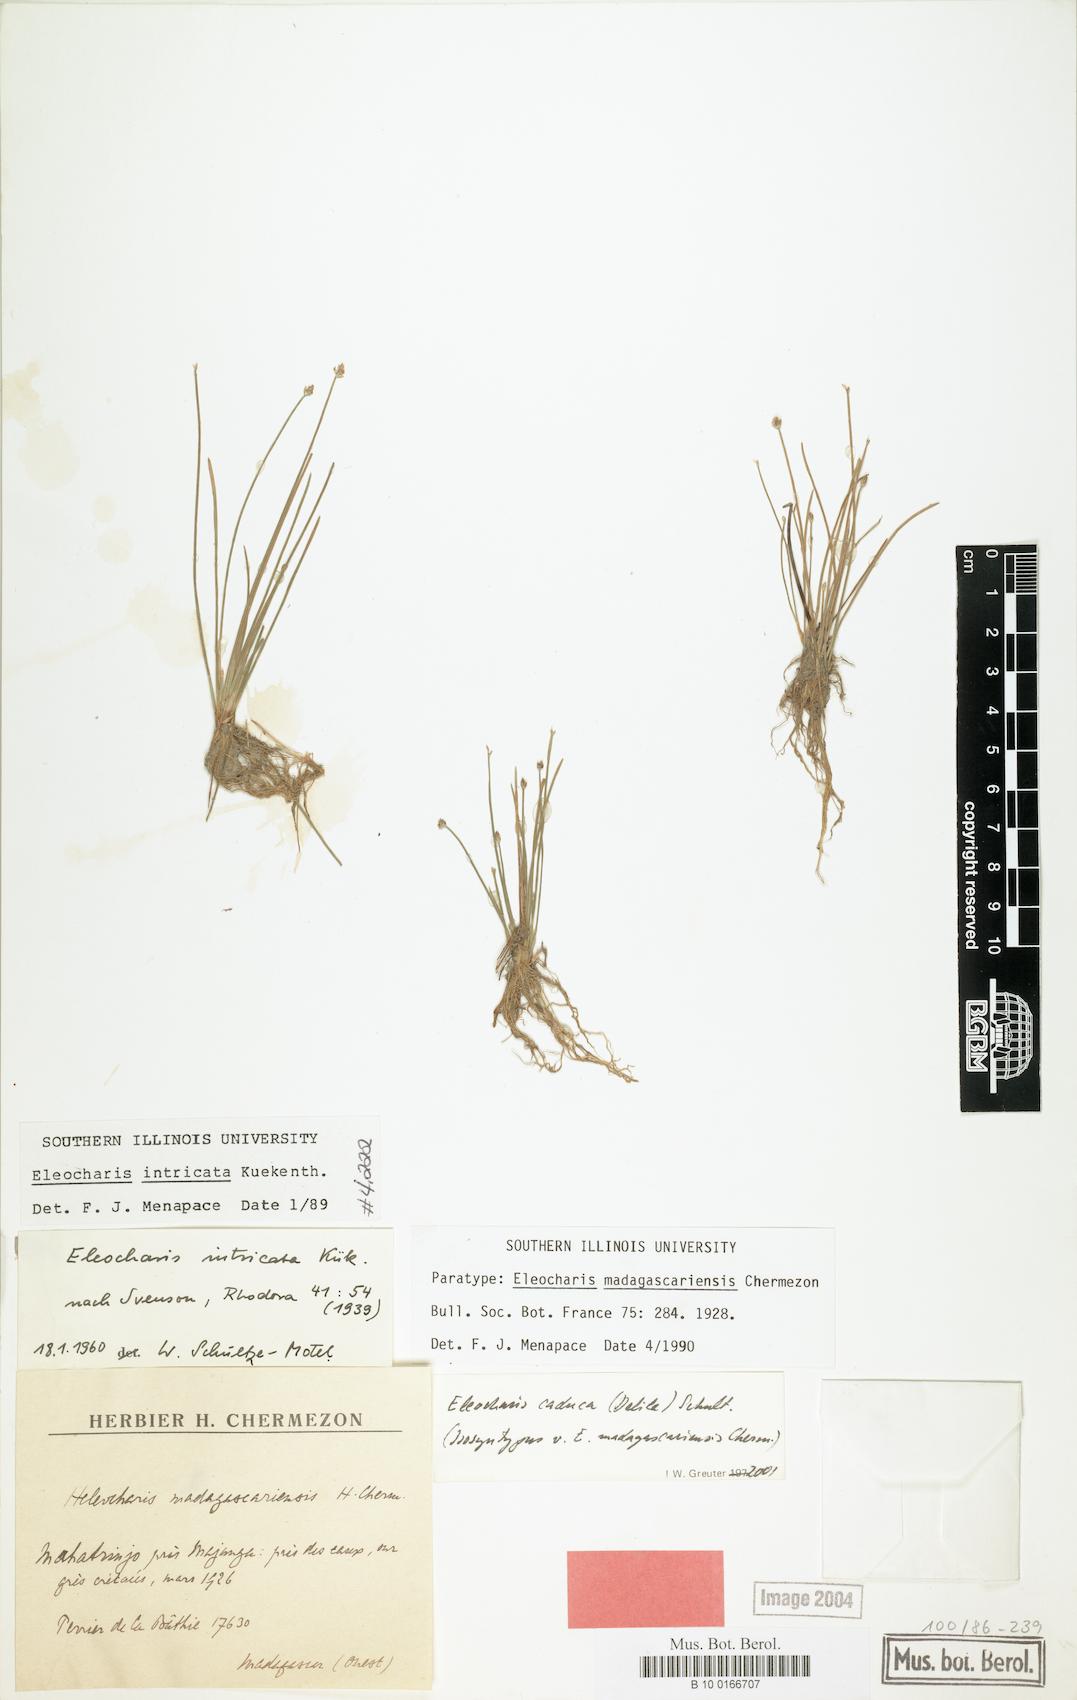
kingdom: Plantae
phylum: Tracheophyta
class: Liliopsida
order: Poales
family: Cyperaceae
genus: Eleocharis
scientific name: Eleocharis caduca
